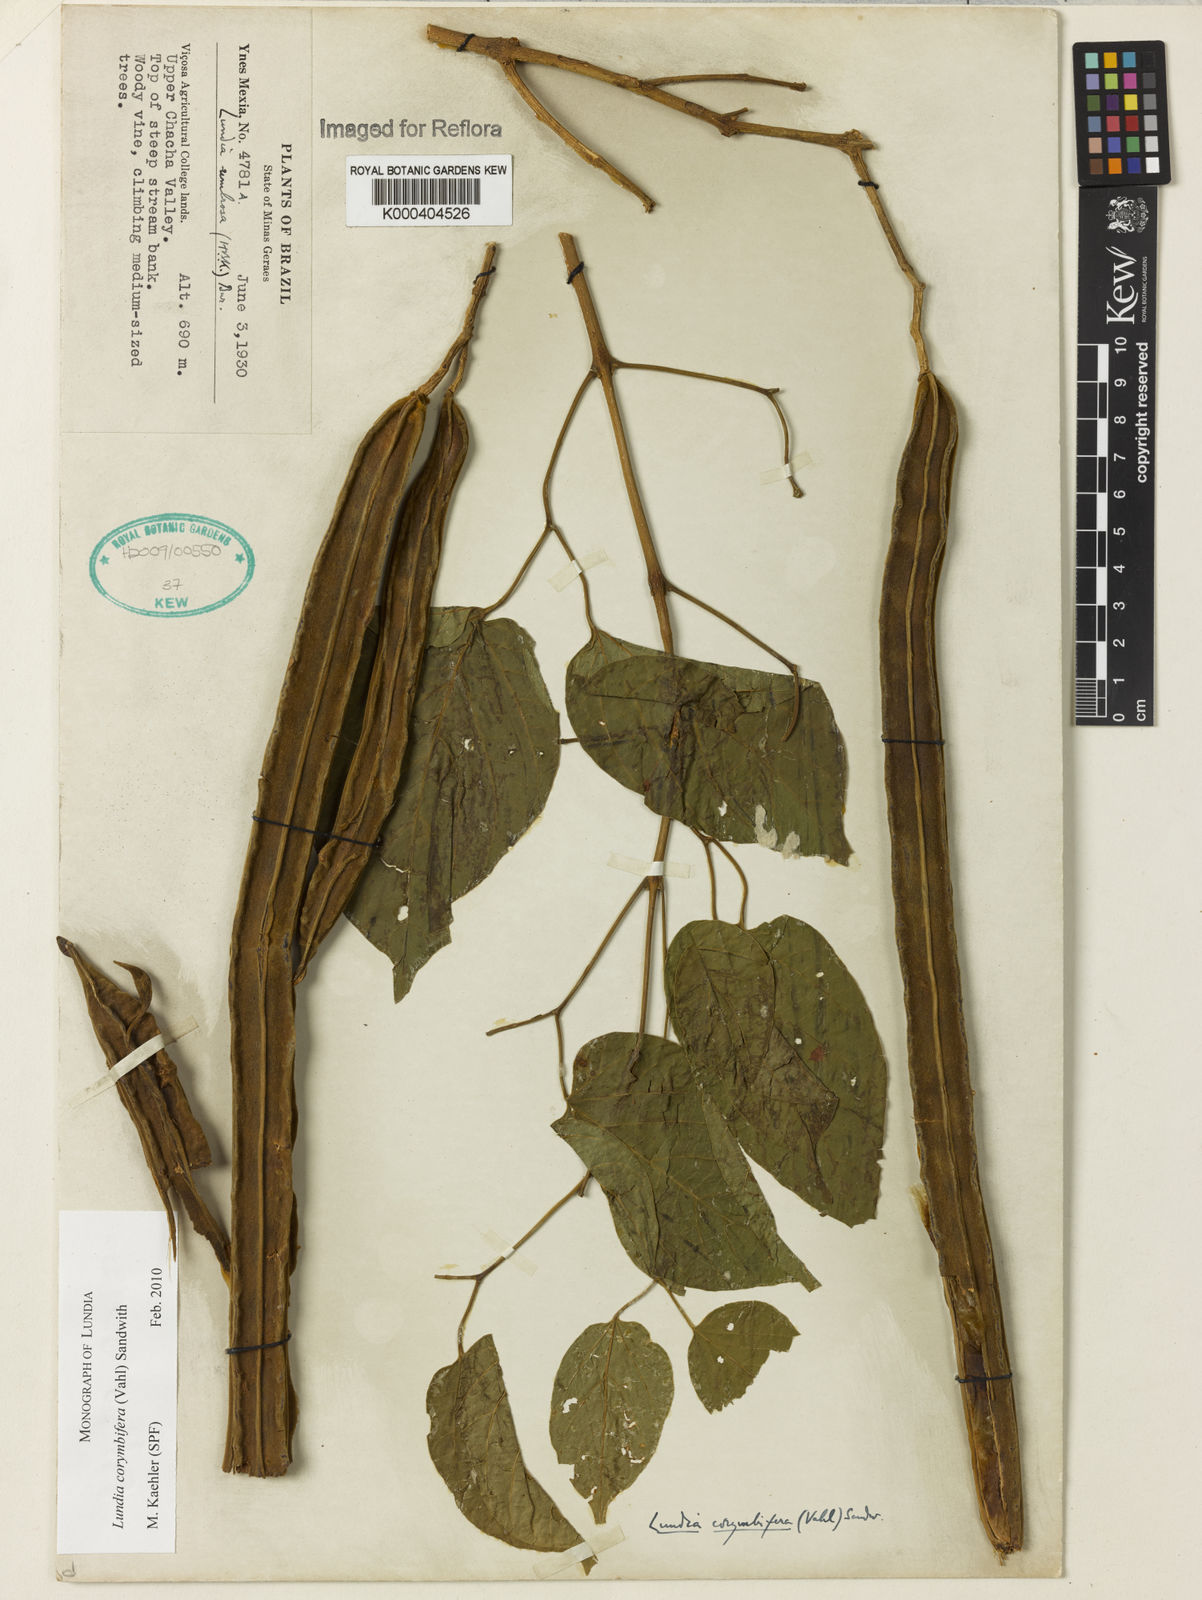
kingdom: Plantae
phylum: Tracheophyta
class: Magnoliopsida
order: Lamiales
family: Bignoniaceae
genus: Lundia
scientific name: Lundia corymbifera
